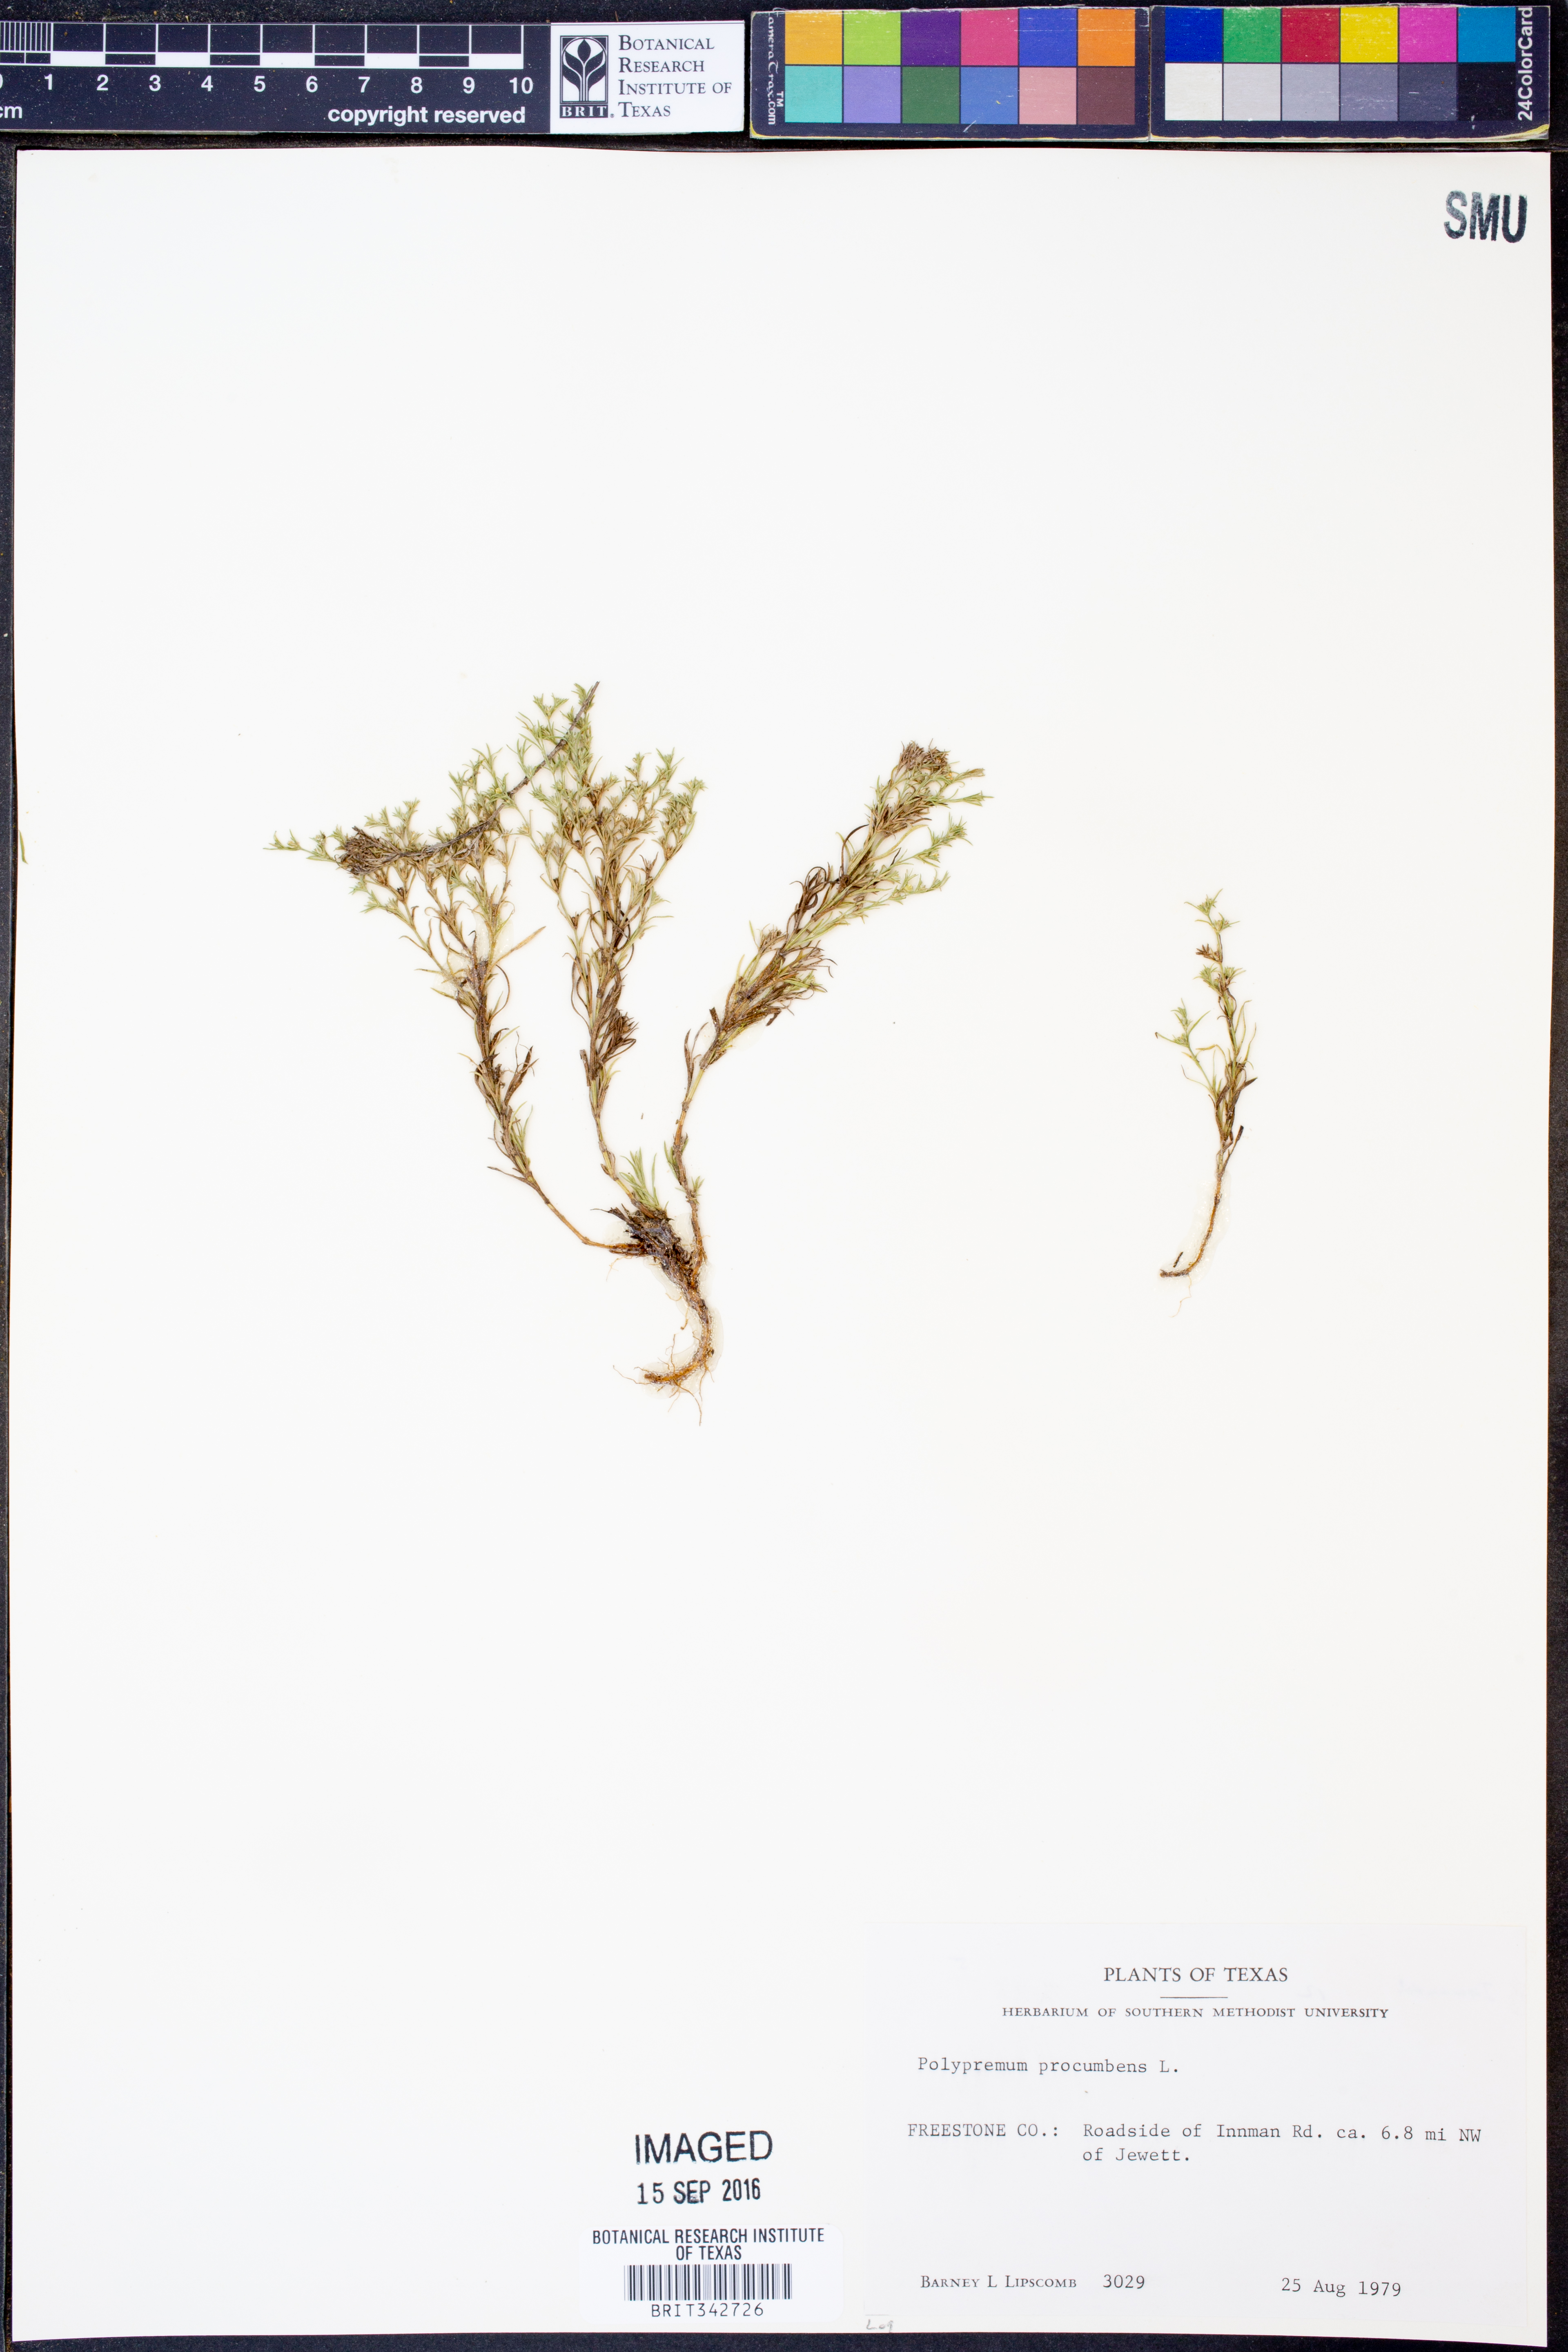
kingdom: Plantae
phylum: Tracheophyta
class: Magnoliopsida
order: Lamiales
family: Tetrachondraceae
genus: Polypremum
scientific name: Polypremum procumbens
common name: Juniper-leaf
